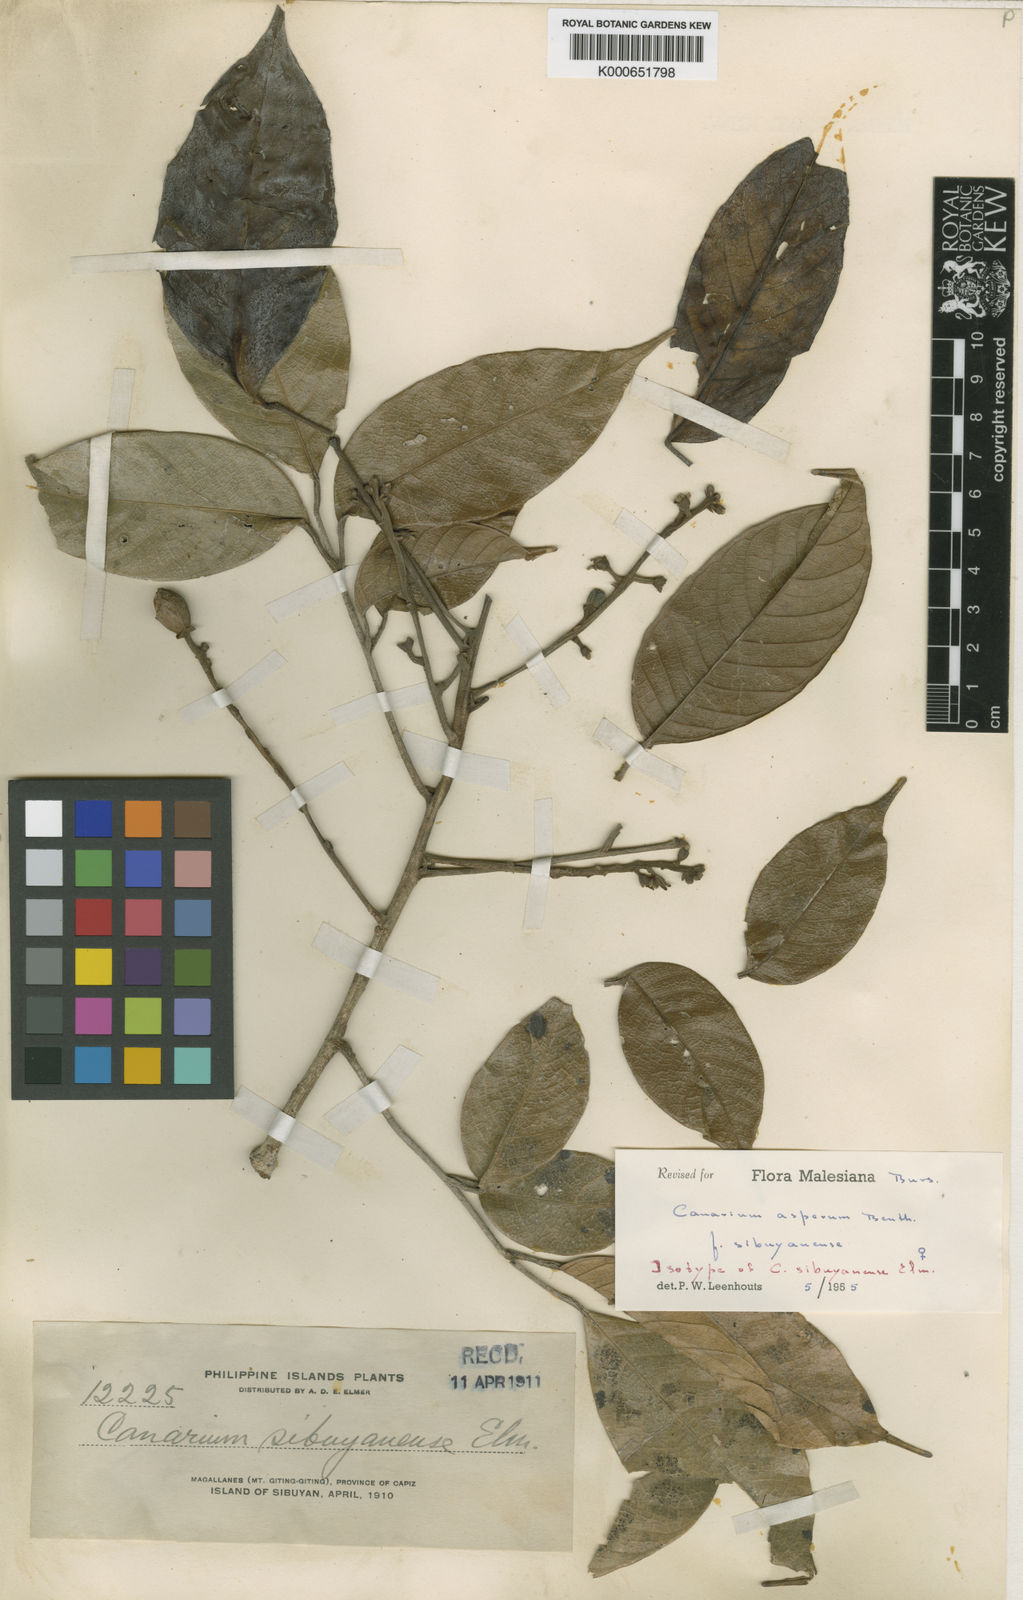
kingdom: Plantae
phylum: Tracheophyta
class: Magnoliopsida
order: Sapindales
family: Burseraceae
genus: Canarium
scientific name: Canarium asperum
